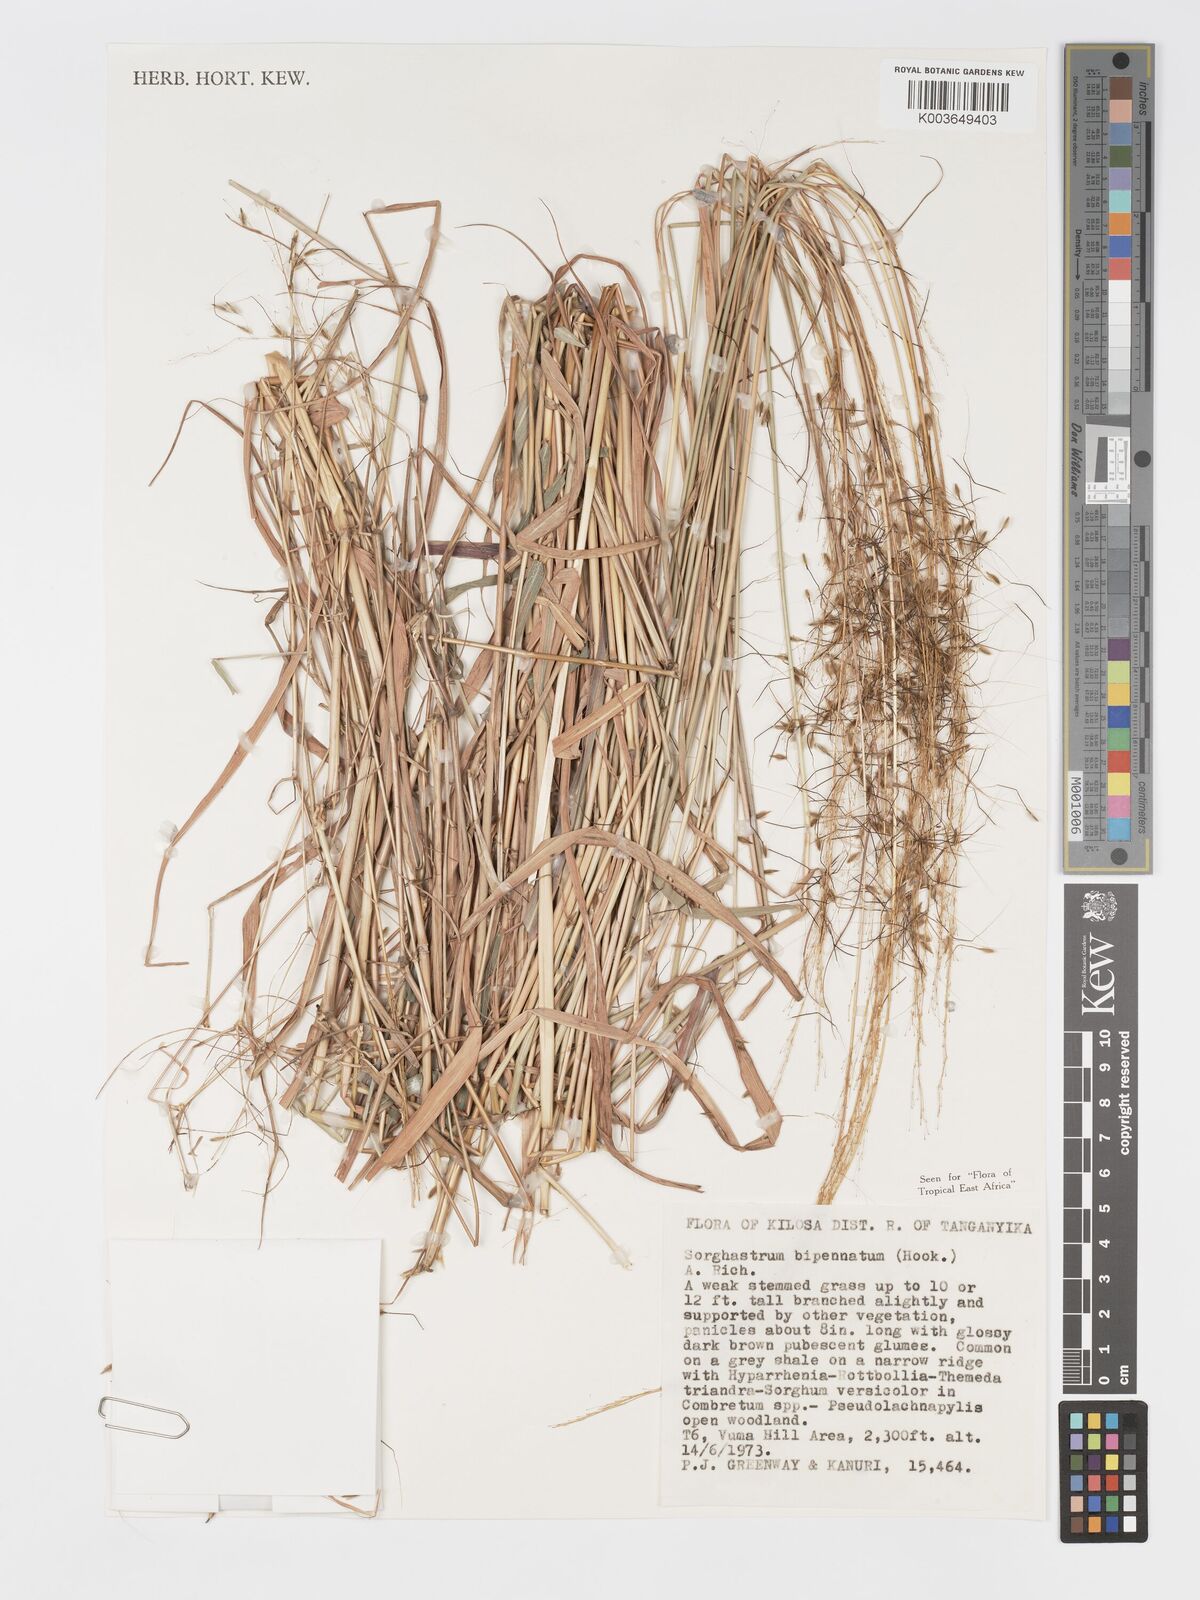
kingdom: Plantae
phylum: Tracheophyta
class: Liliopsida
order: Poales
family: Poaceae
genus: Sorghastrum
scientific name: Sorghastrum incompletum
